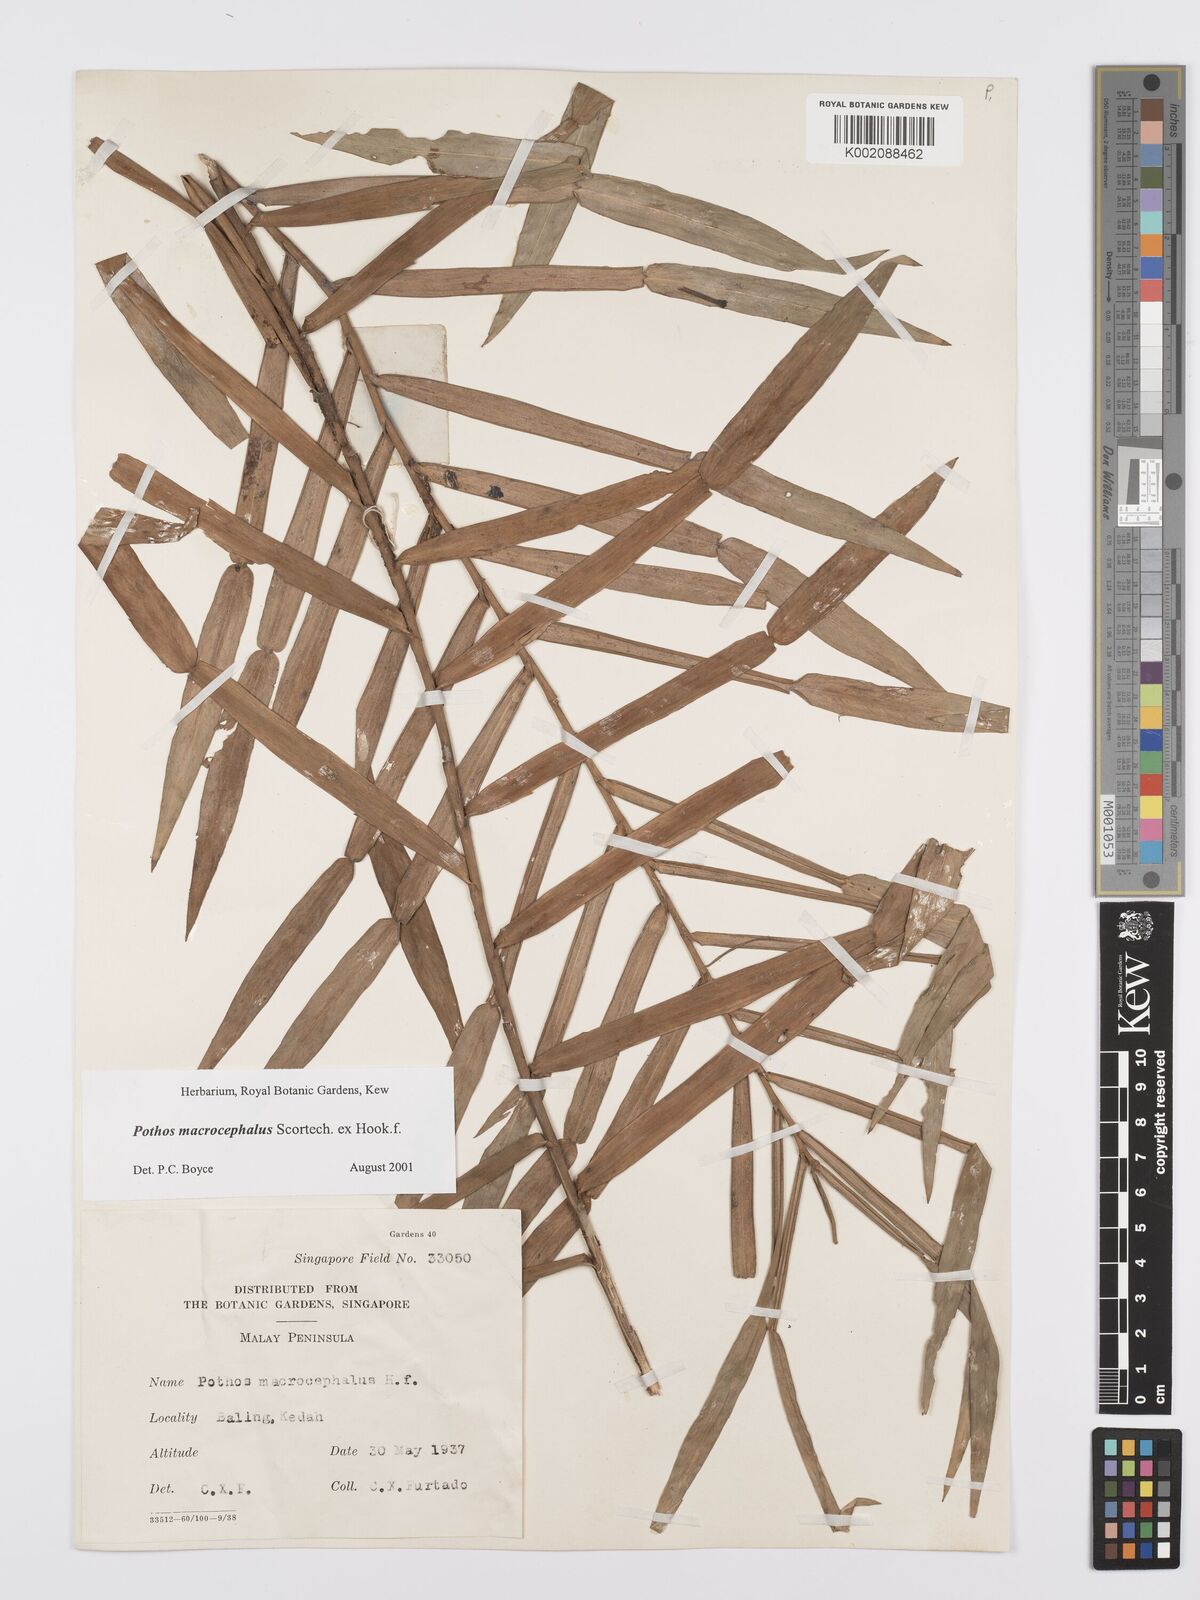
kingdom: Plantae
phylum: Tracheophyta
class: Liliopsida
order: Alismatales
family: Araceae
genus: Pothos
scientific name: Pothos macrocephalus
